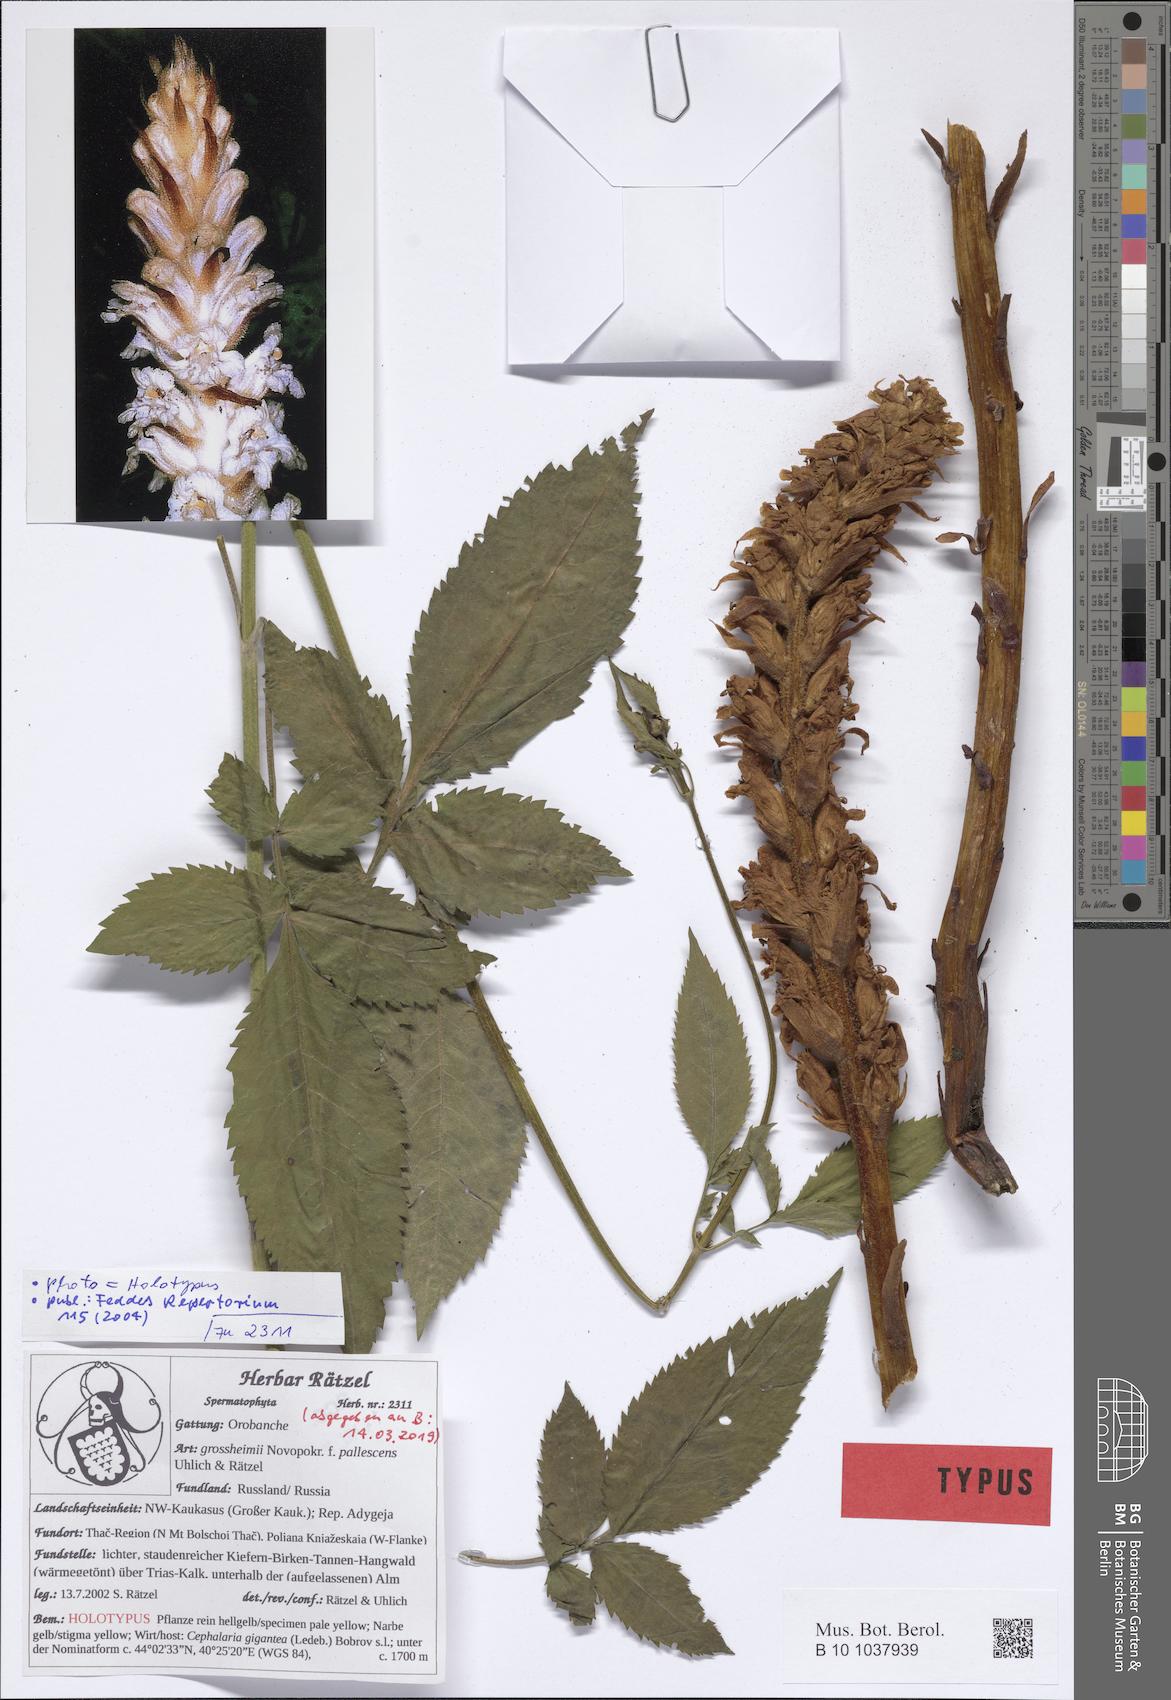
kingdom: Plantae
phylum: Tracheophyta
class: Magnoliopsida
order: Lamiales
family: Orobanchaceae
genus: Orobanche
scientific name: Orobanche grossheimii
